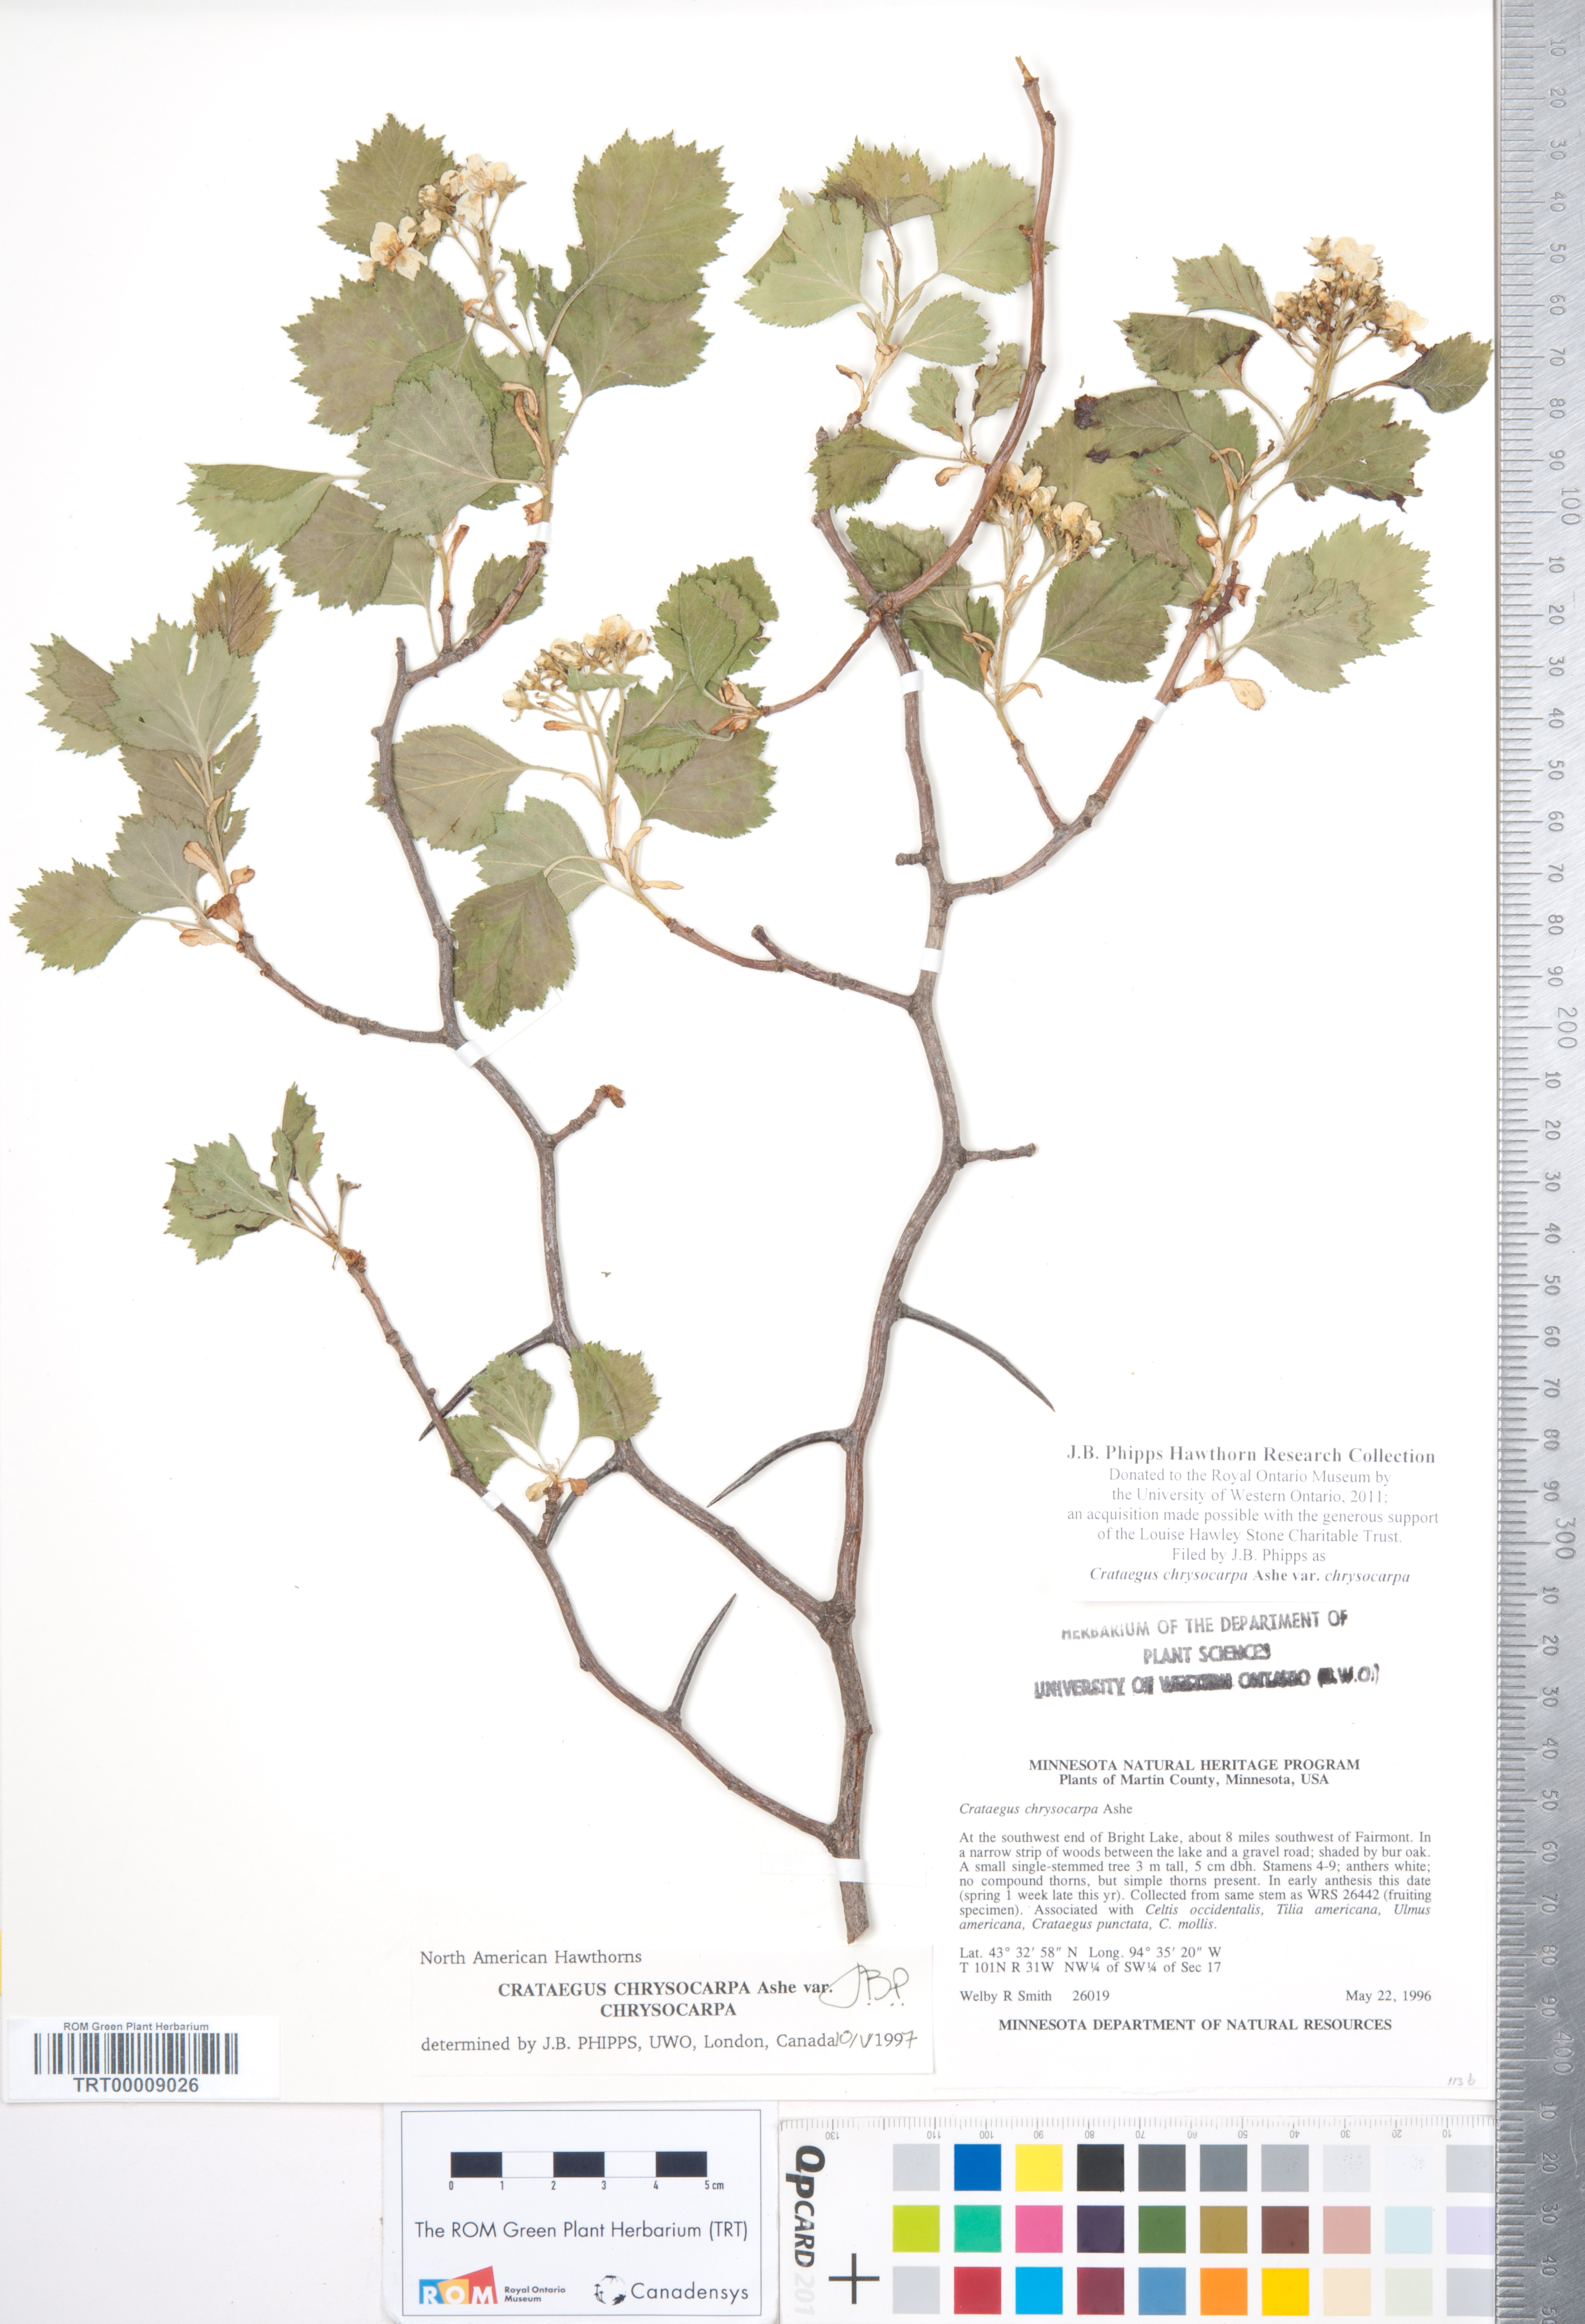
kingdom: Plantae
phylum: Tracheophyta
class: Magnoliopsida
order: Rosales
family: Rosaceae
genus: Crataegus
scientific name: Crataegus chrysocarpa
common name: Fire-berry hawthorn
